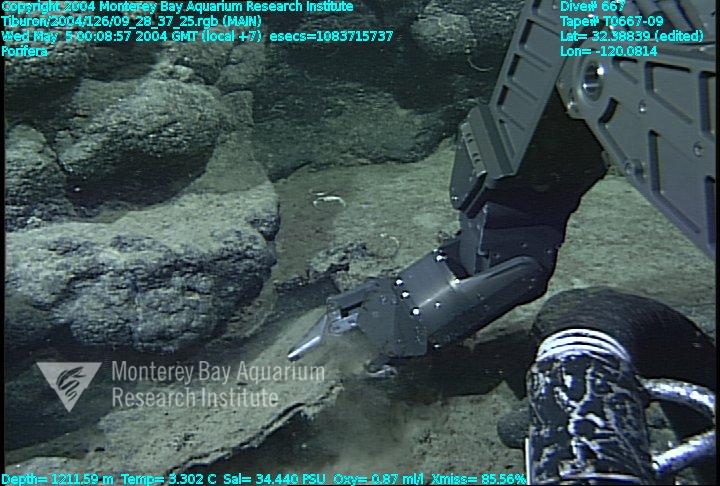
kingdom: Animalia
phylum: Porifera
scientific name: Porifera
